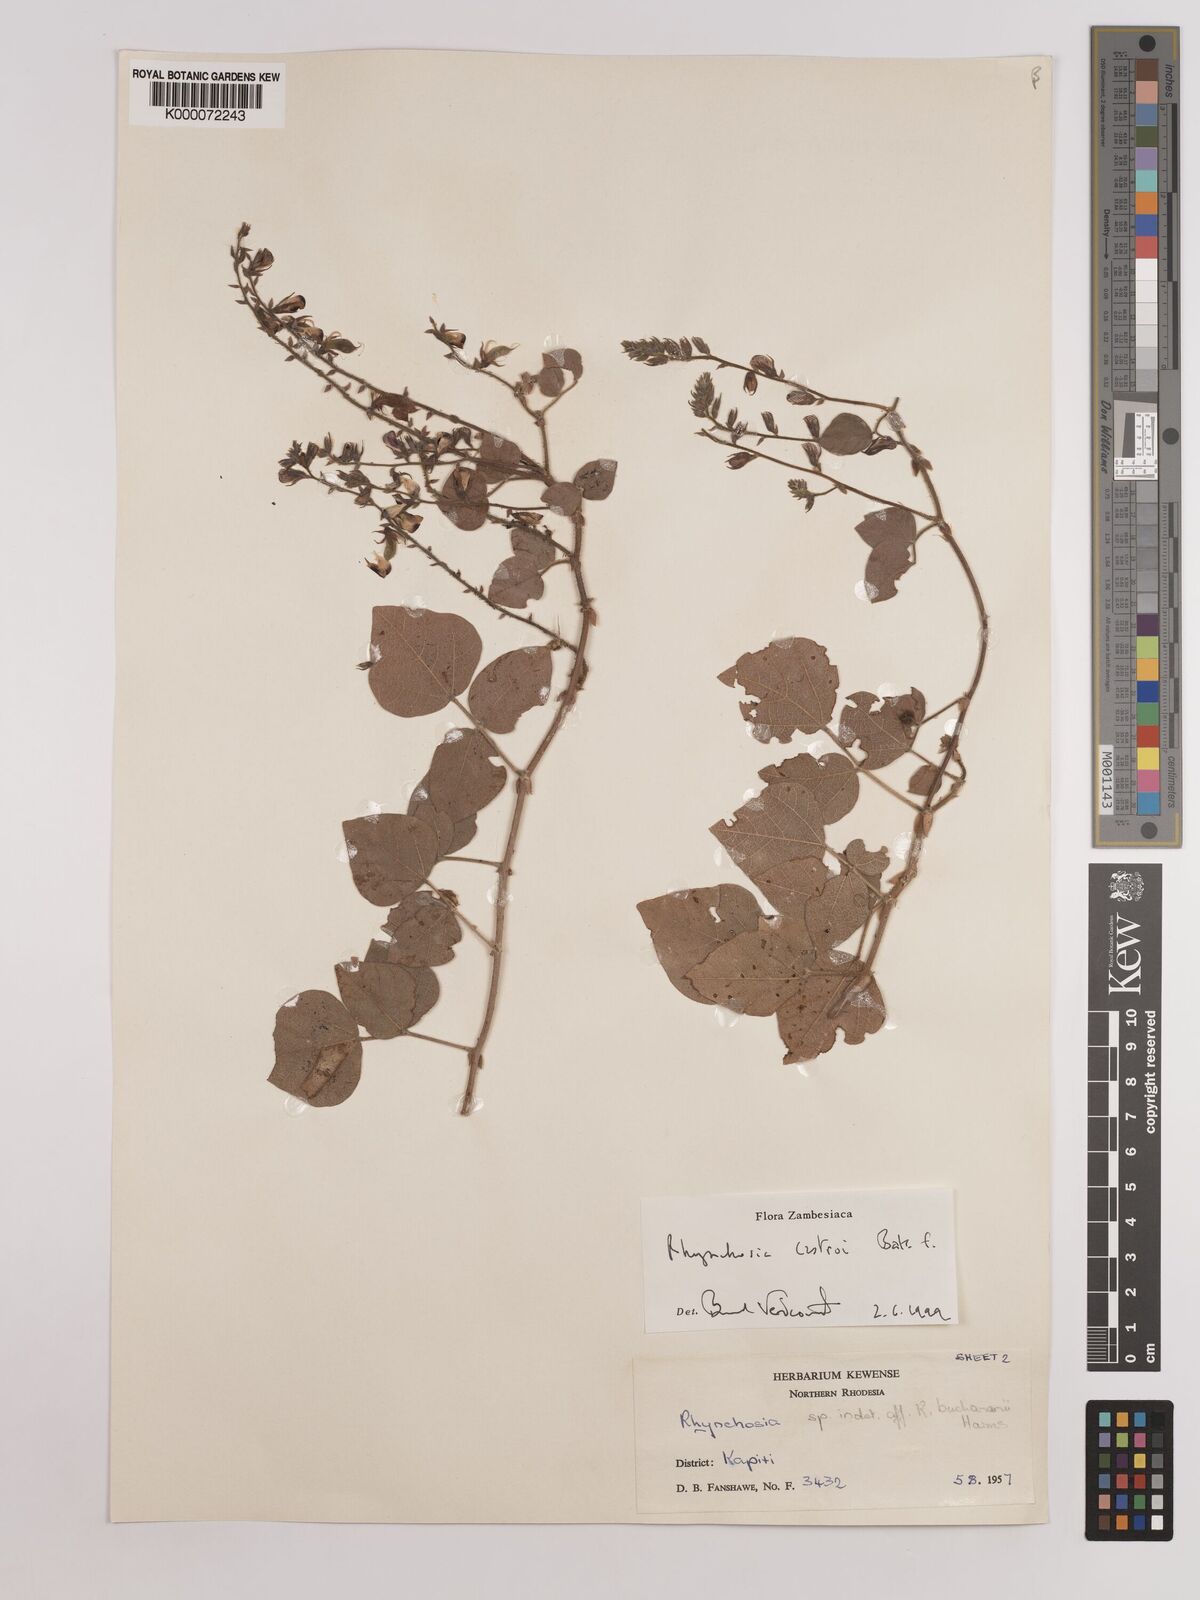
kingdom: Plantae
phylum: Tracheophyta
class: Magnoliopsida
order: Fabales
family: Fabaceae
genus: Rhynchosia
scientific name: Rhynchosia castroi
